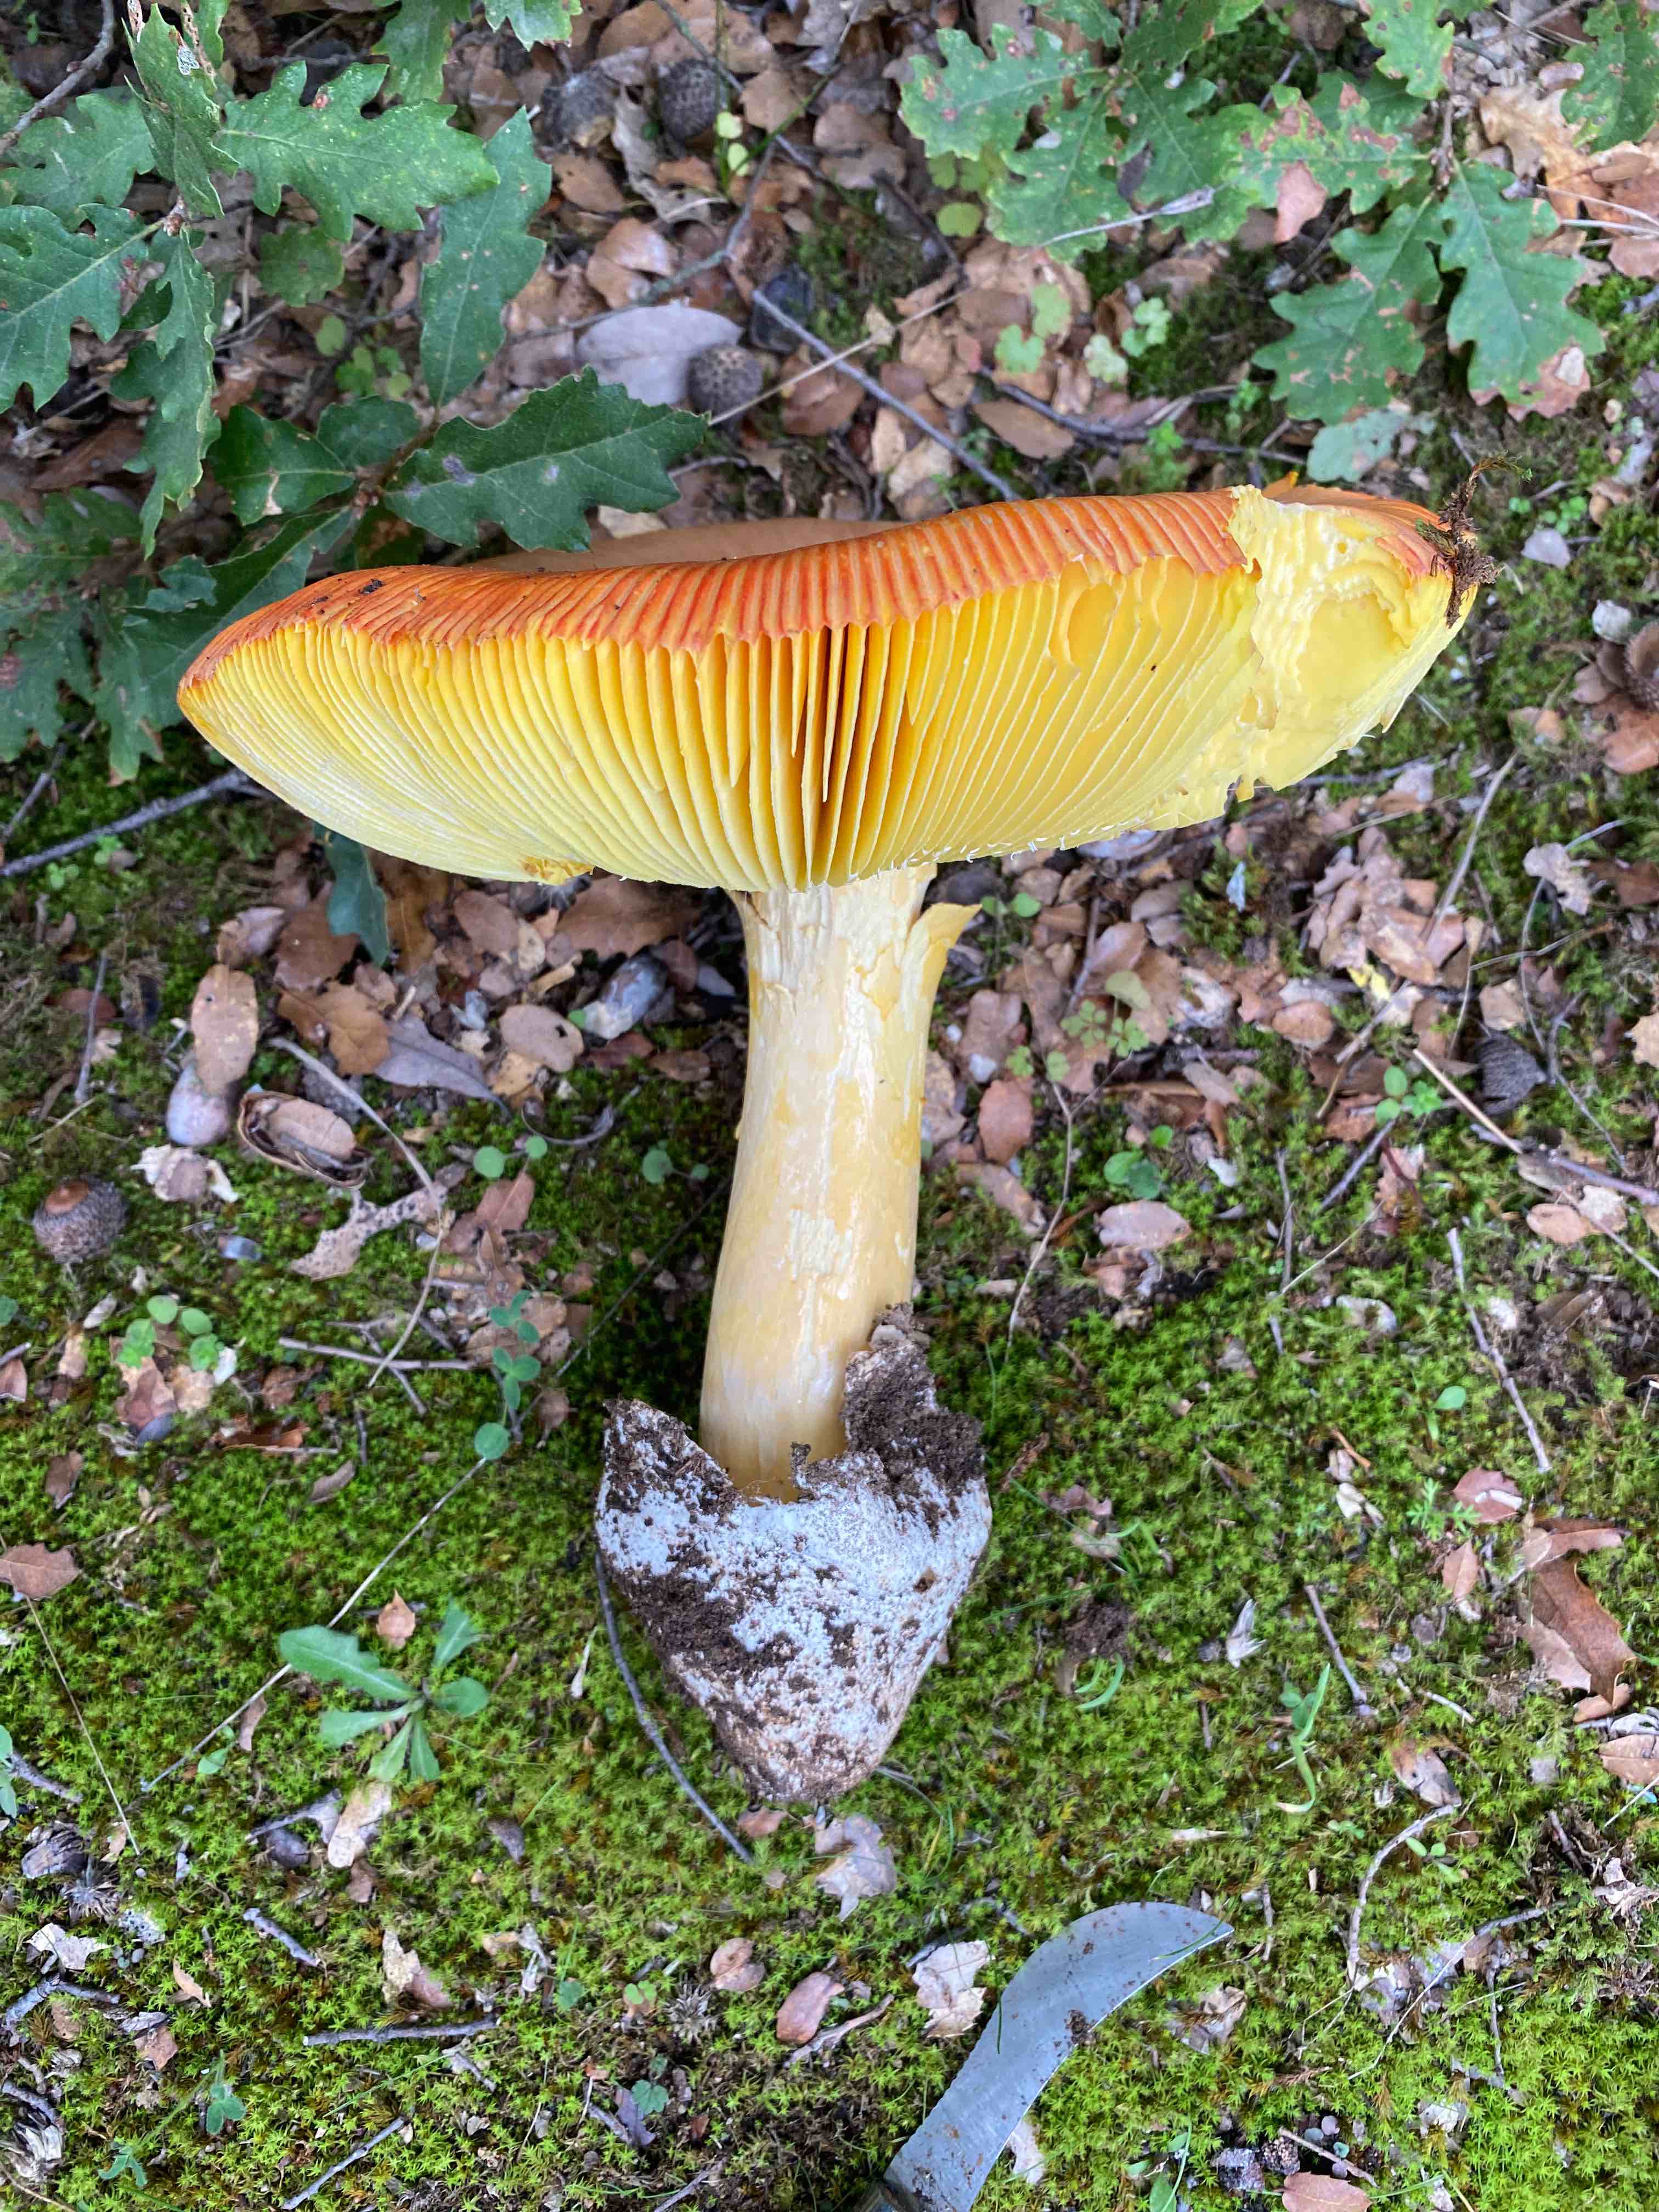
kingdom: Fungi
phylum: Basidiomycota
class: Agaricomycetes
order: Agaricales
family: Amanitaceae
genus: Amanita
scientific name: Amanita caesarea
